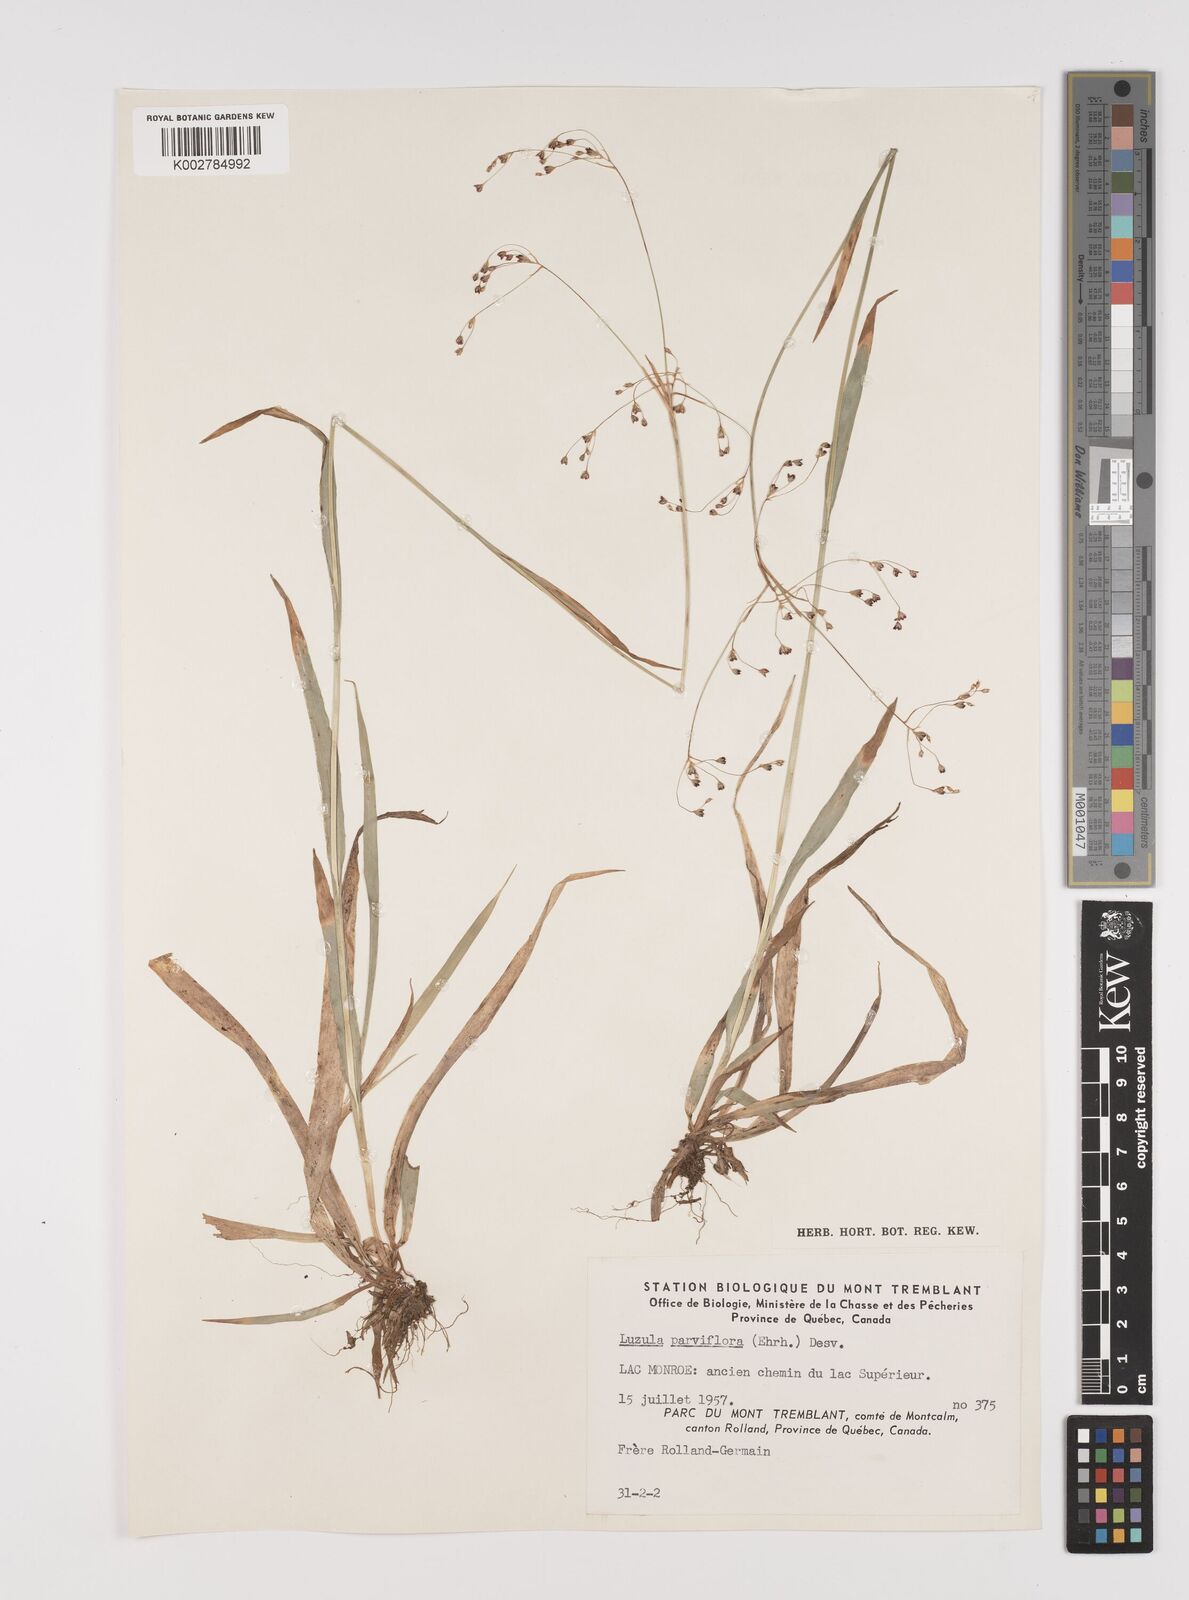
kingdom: Plantae
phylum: Tracheophyta
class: Liliopsida
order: Poales
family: Juncaceae
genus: Luzula
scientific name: Luzula parviflora
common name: Millet woodrush
